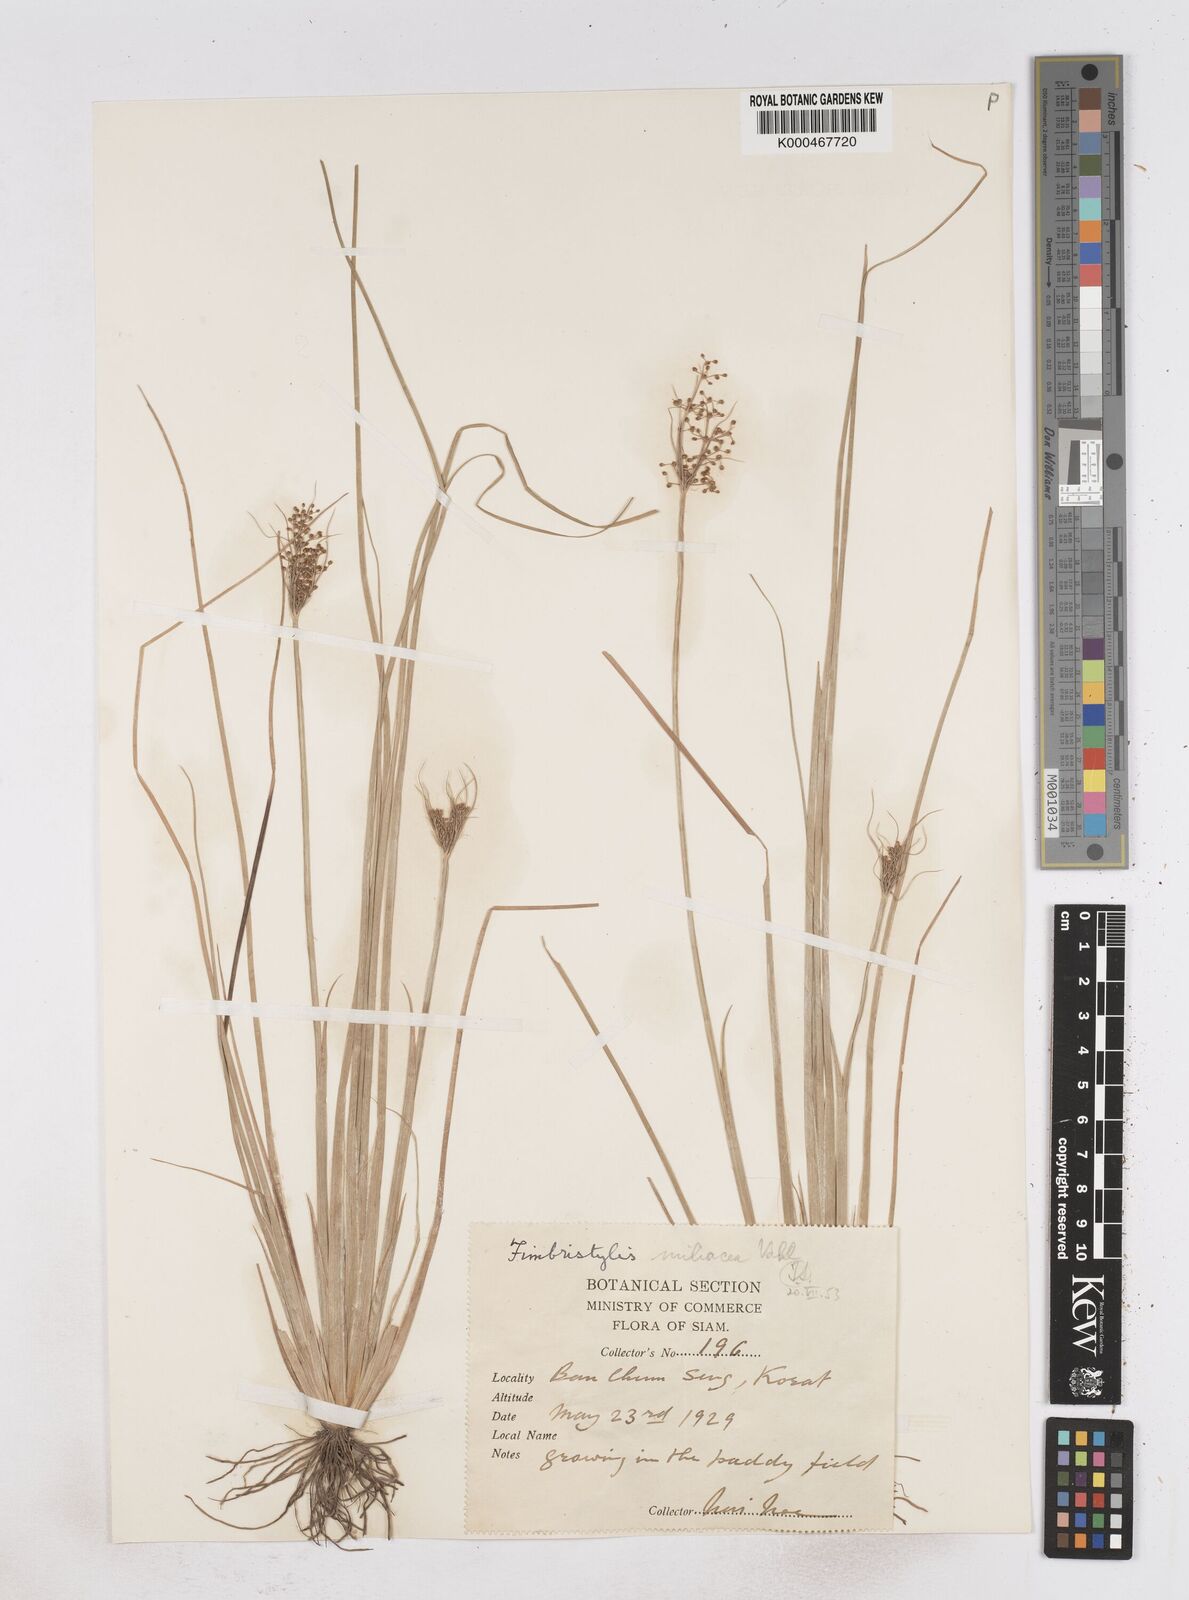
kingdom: Plantae
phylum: Tracheophyta
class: Liliopsida
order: Poales
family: Cyperaceae
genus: Fimbristylis
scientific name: Fimbristylis quinquangularis
